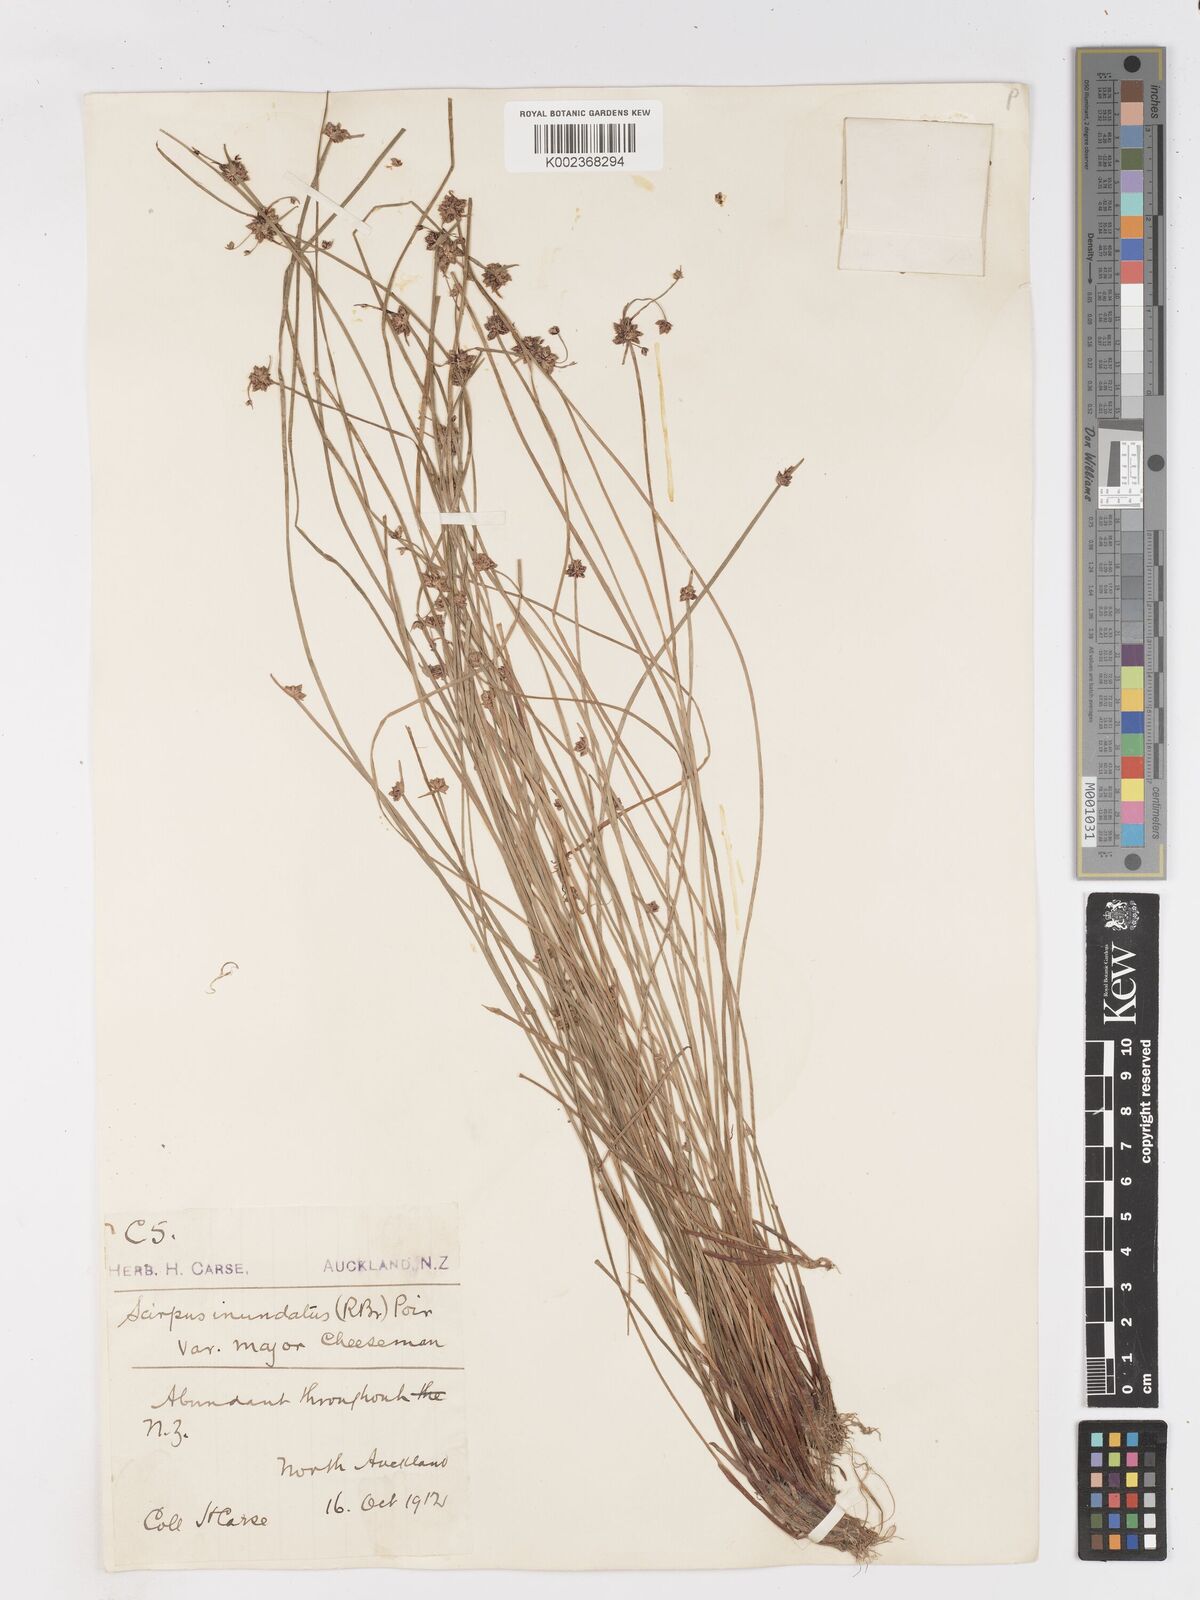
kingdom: Plantae
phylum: Tracheophyta
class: Liliopsida
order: Poales
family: Cyperaceae
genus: Isolepis
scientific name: Isolepis inundata
